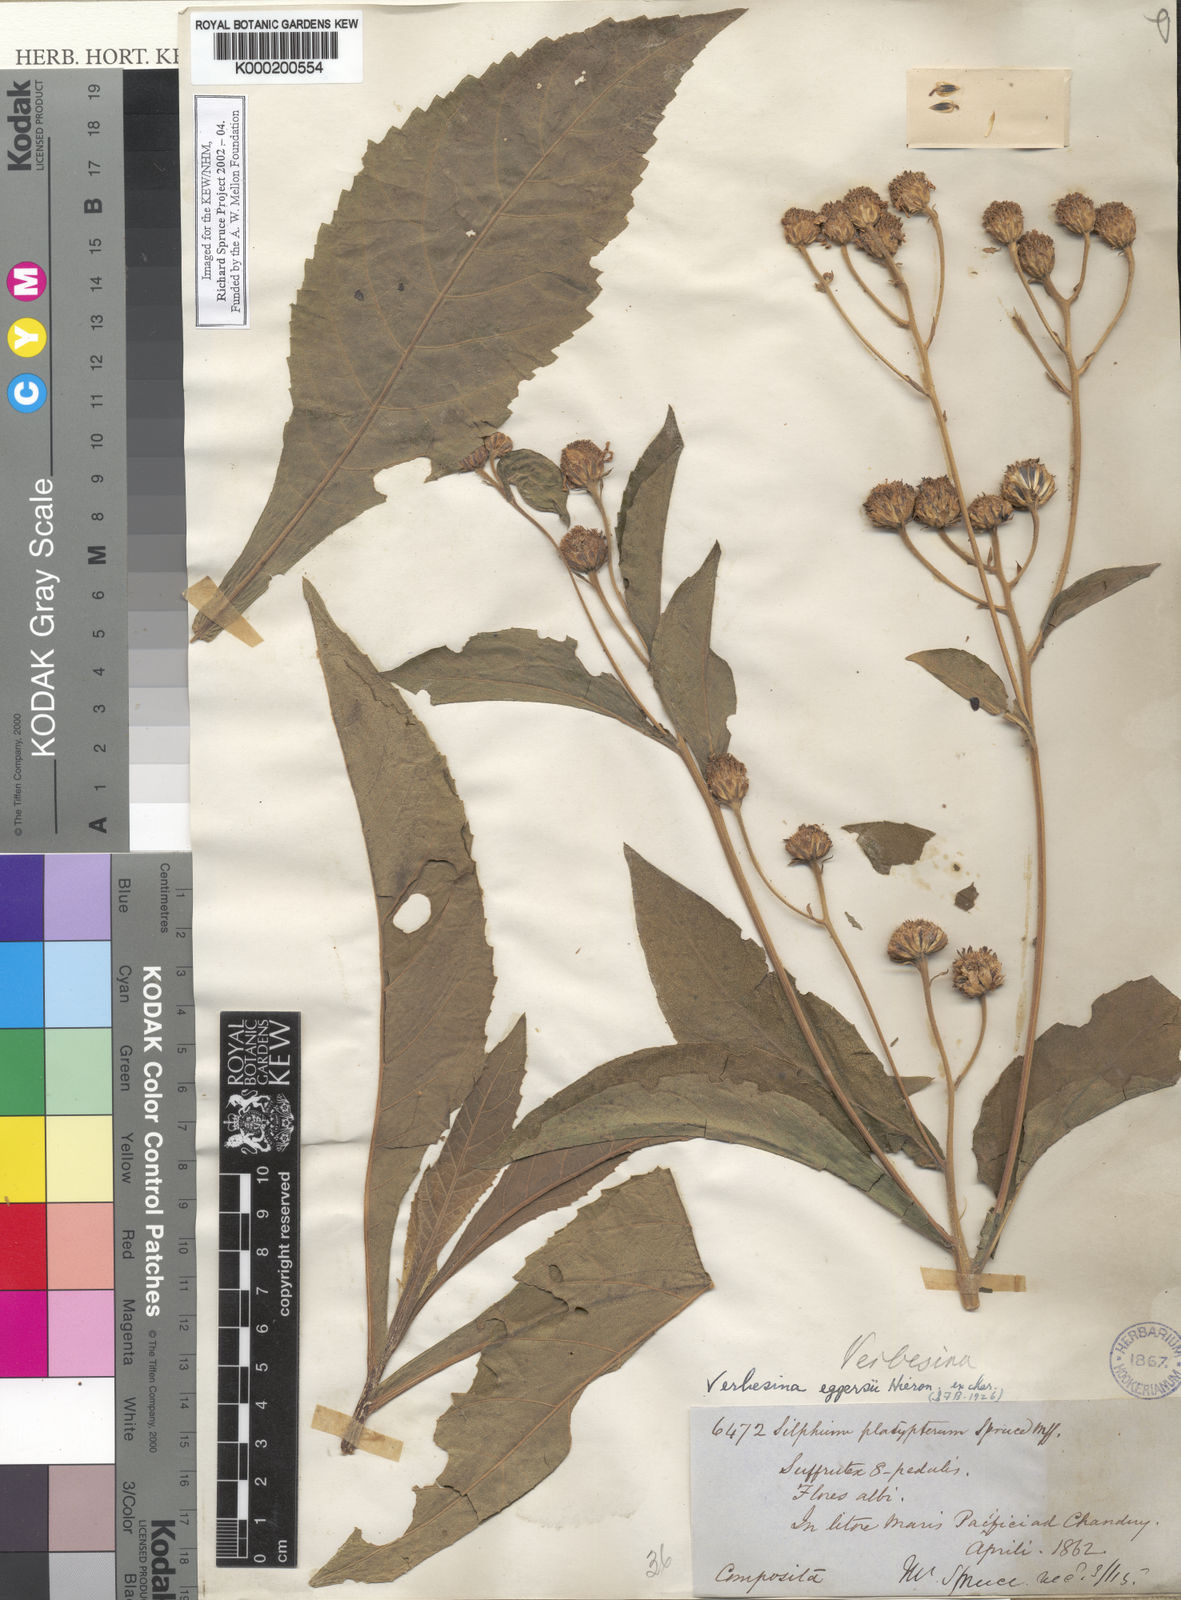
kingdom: Plantae
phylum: Tracheophyta
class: Magnoliopsida
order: Asterales
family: Asteraceae
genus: Verbesina
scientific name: Verbesina eggersii
